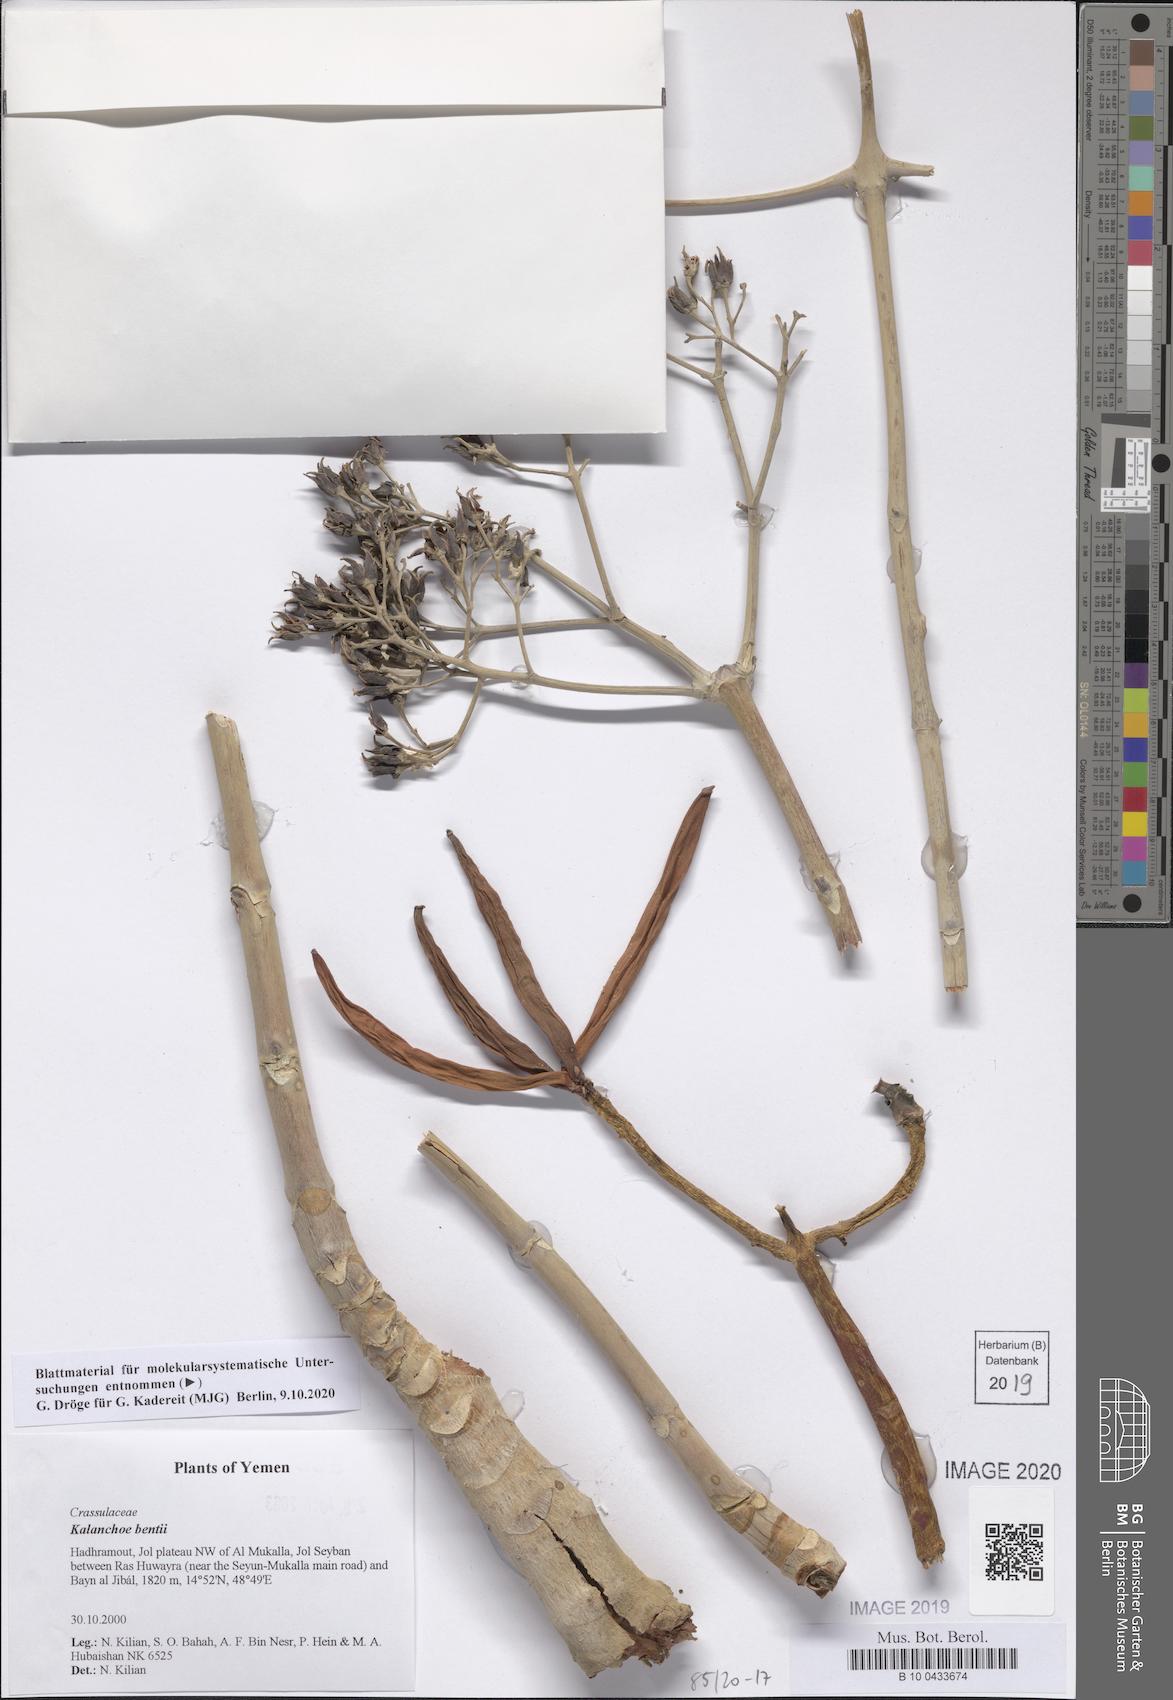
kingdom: Plantae
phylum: Tracheophyta
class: Magnoliopsida
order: Saxifragales
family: Crassulaceae
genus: Kalanchoe
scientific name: Kalanchoe bentii
